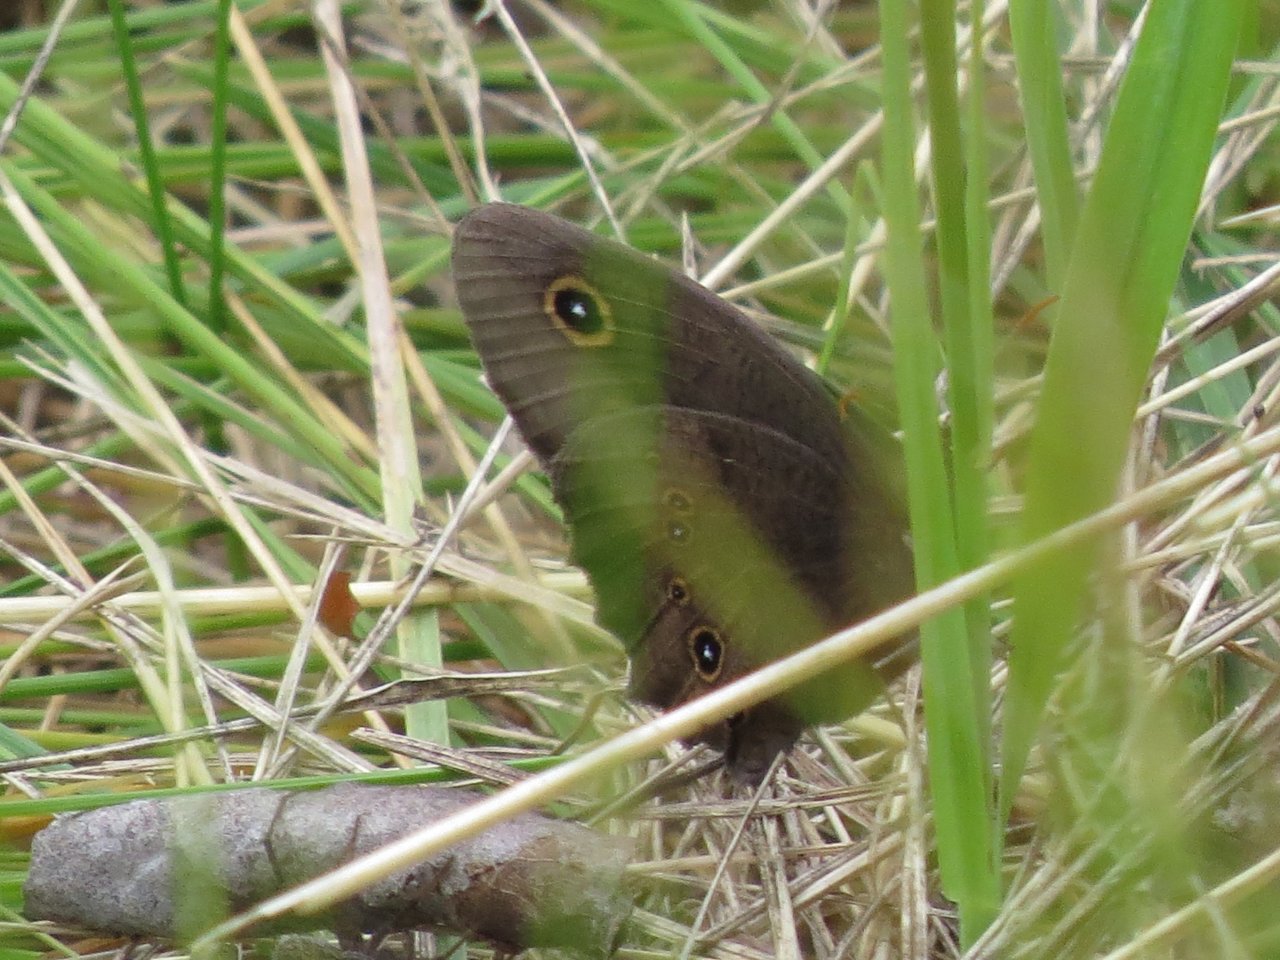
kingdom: Animalia
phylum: Arthropoda
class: Insecta
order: Lepidoptera
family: Nymphalidae
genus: Cercyonis
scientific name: Cercyonis pegala
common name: Common Wood-Nymph
